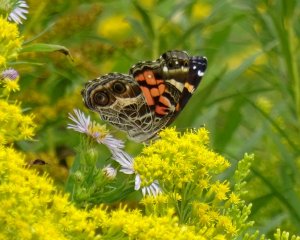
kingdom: Animalia
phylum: Arthropoda
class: Insecta
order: Lepidoptera
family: Nymphalidae
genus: Vanessa
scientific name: Vanessa virginiensis
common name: American Lady
